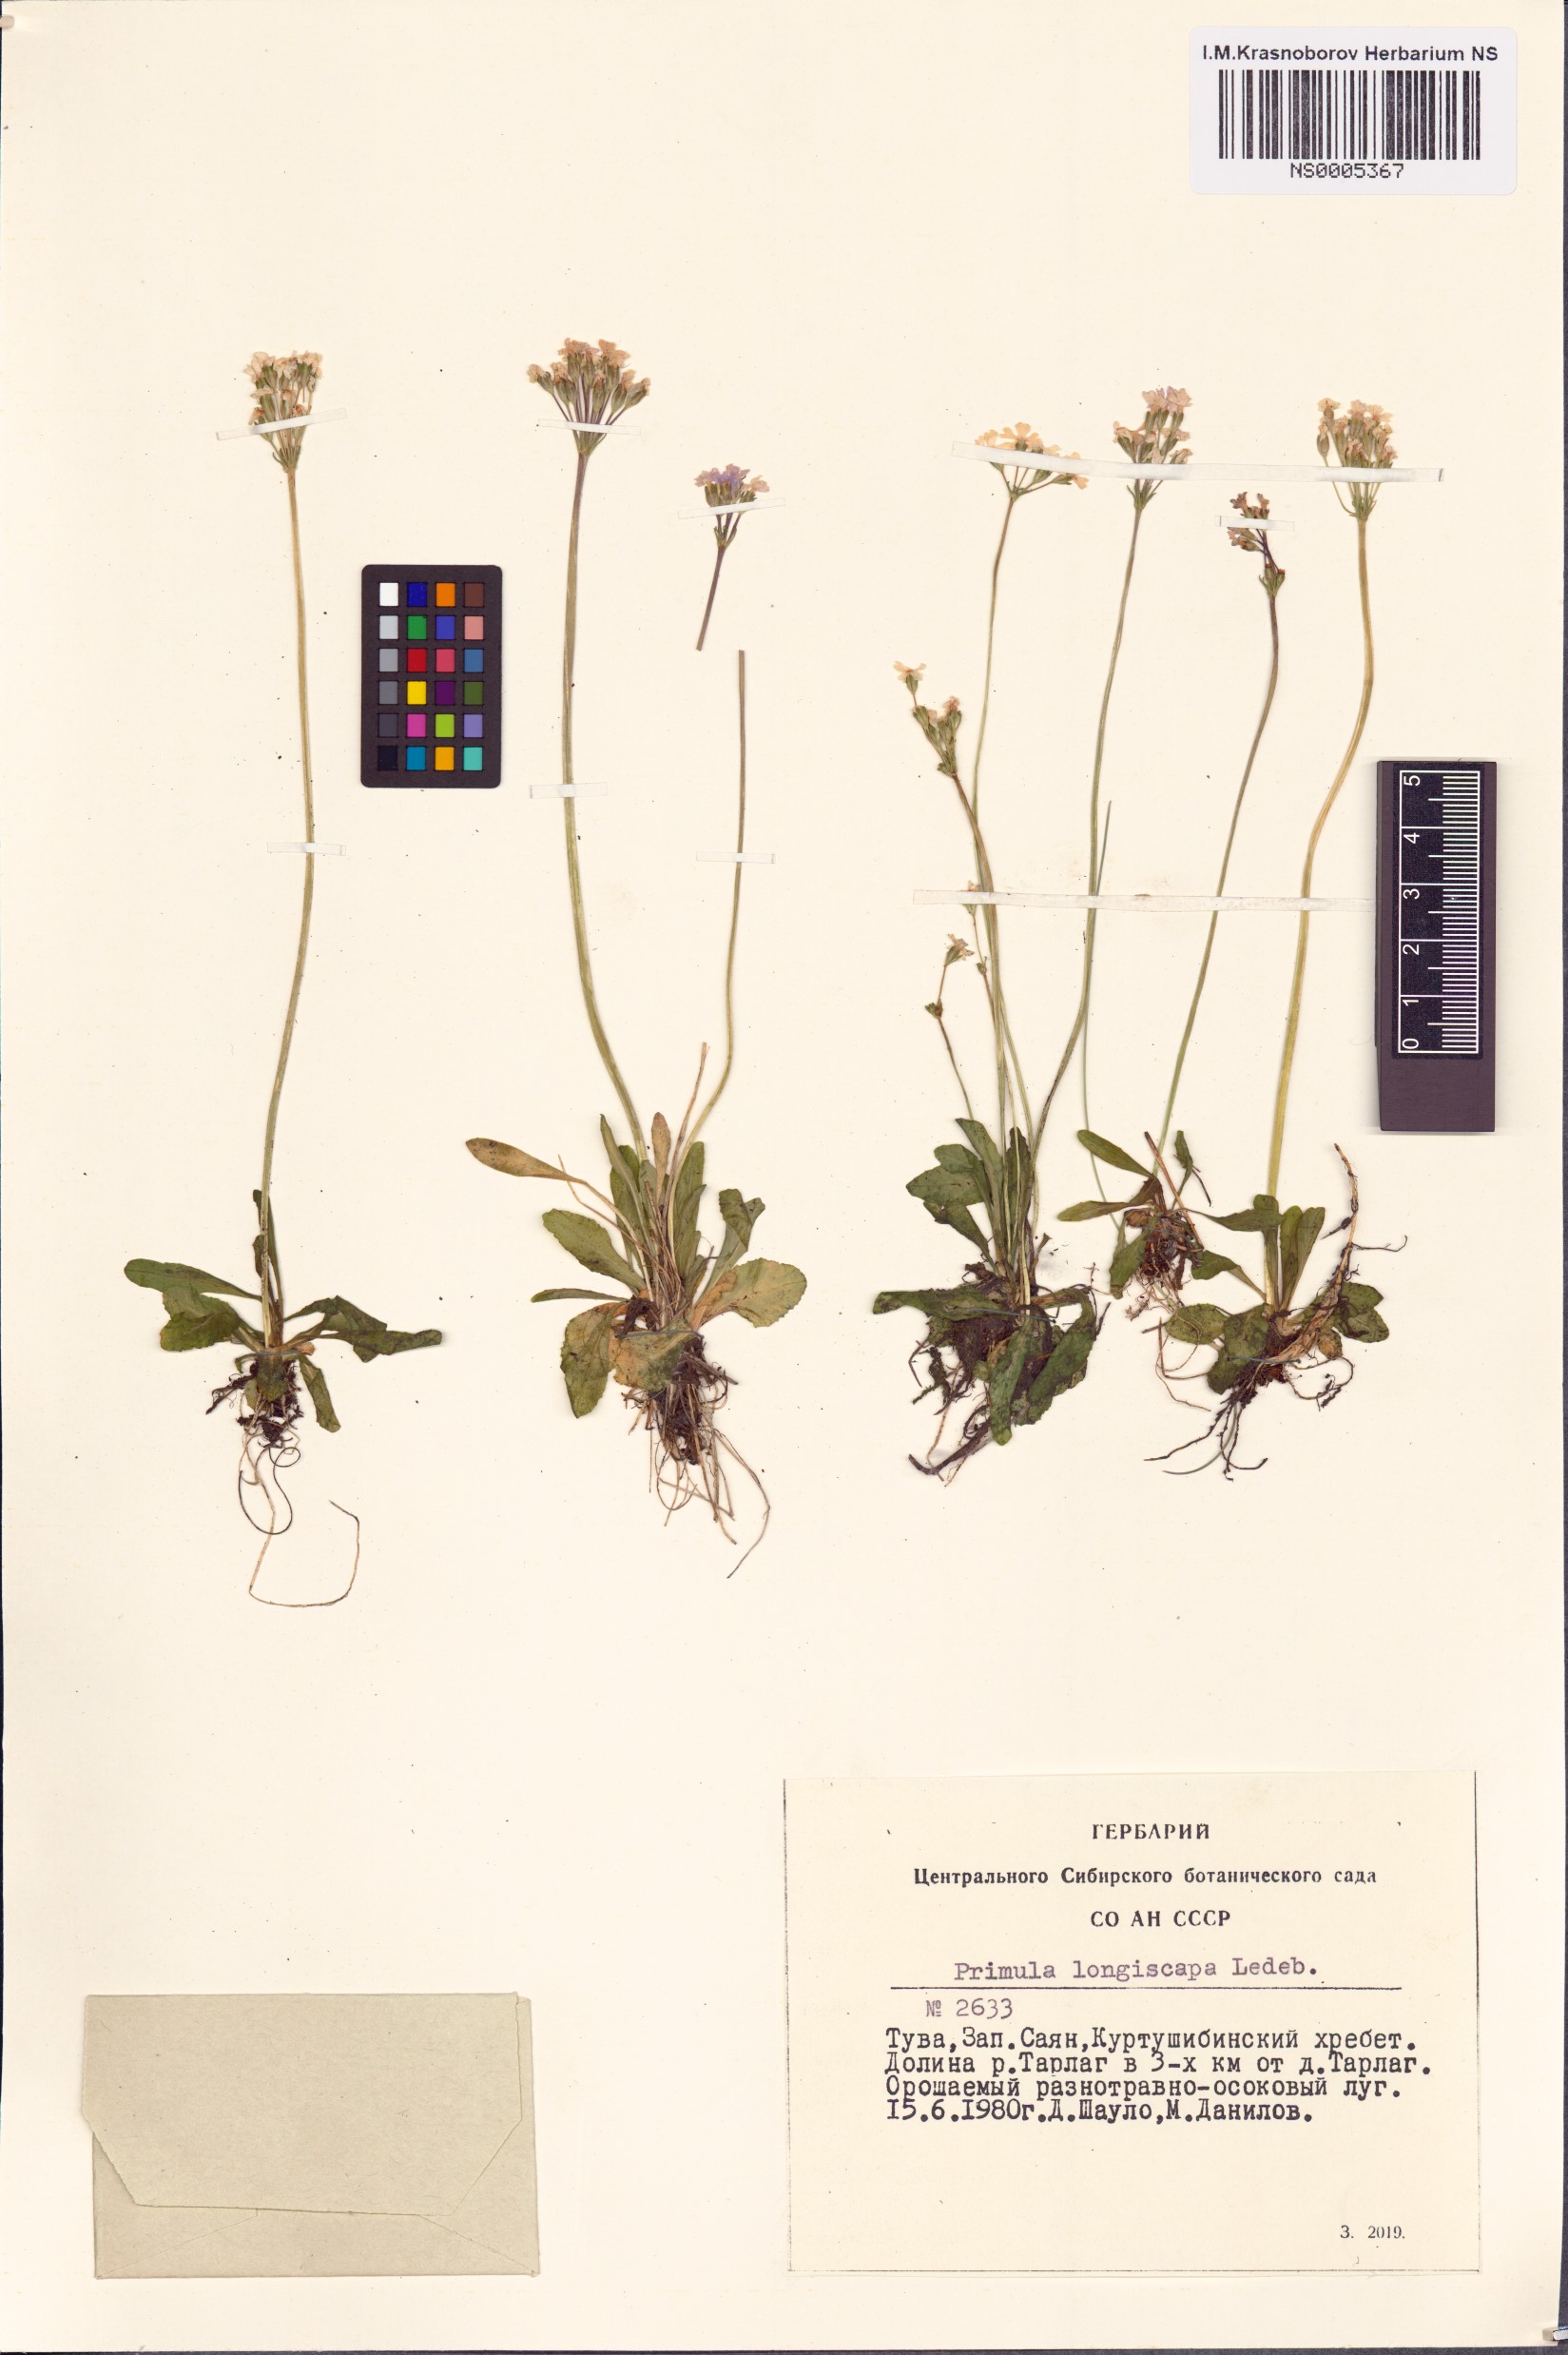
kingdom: Plantae
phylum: Tracheophyta
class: Magnoliopsida
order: Ericales
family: Primulaceae
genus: Primula
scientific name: Primula longiscapa
